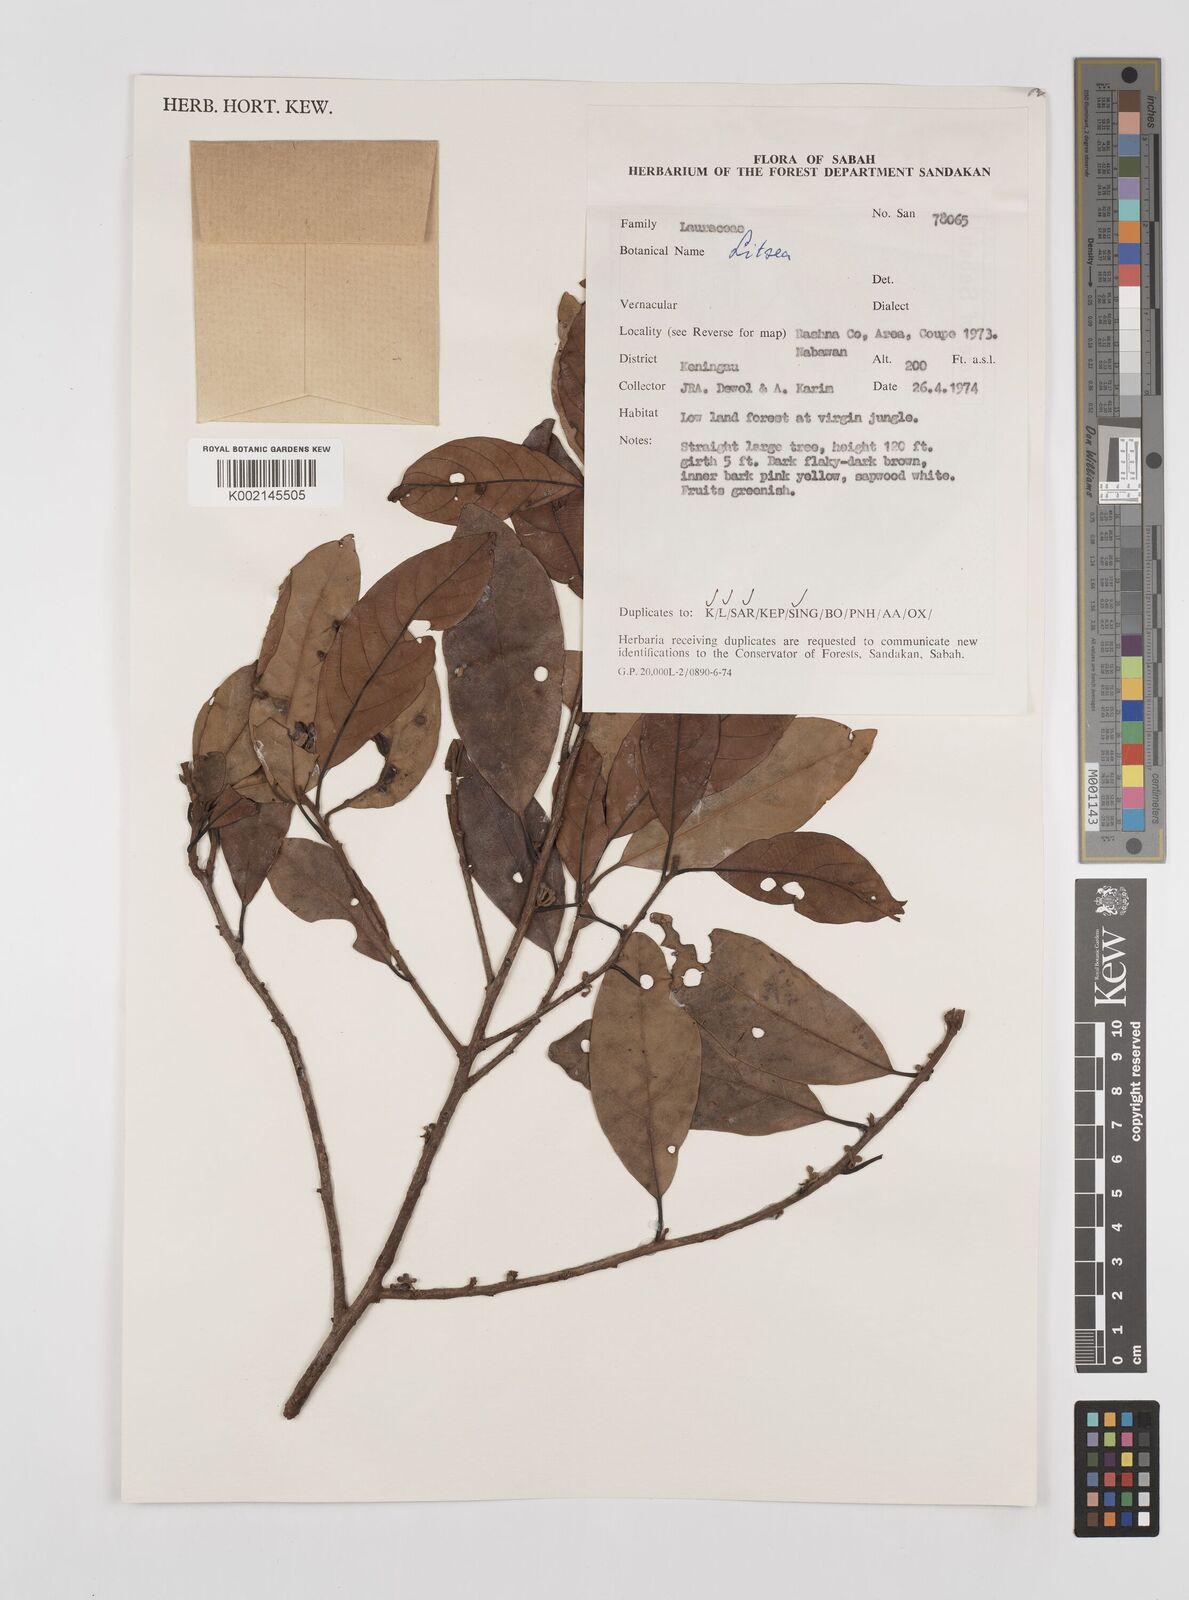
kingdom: Plantae
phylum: Tracheophyta
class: Magnoliopsida
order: Laurales
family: Lauraceae
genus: Litsea
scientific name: Litsea
